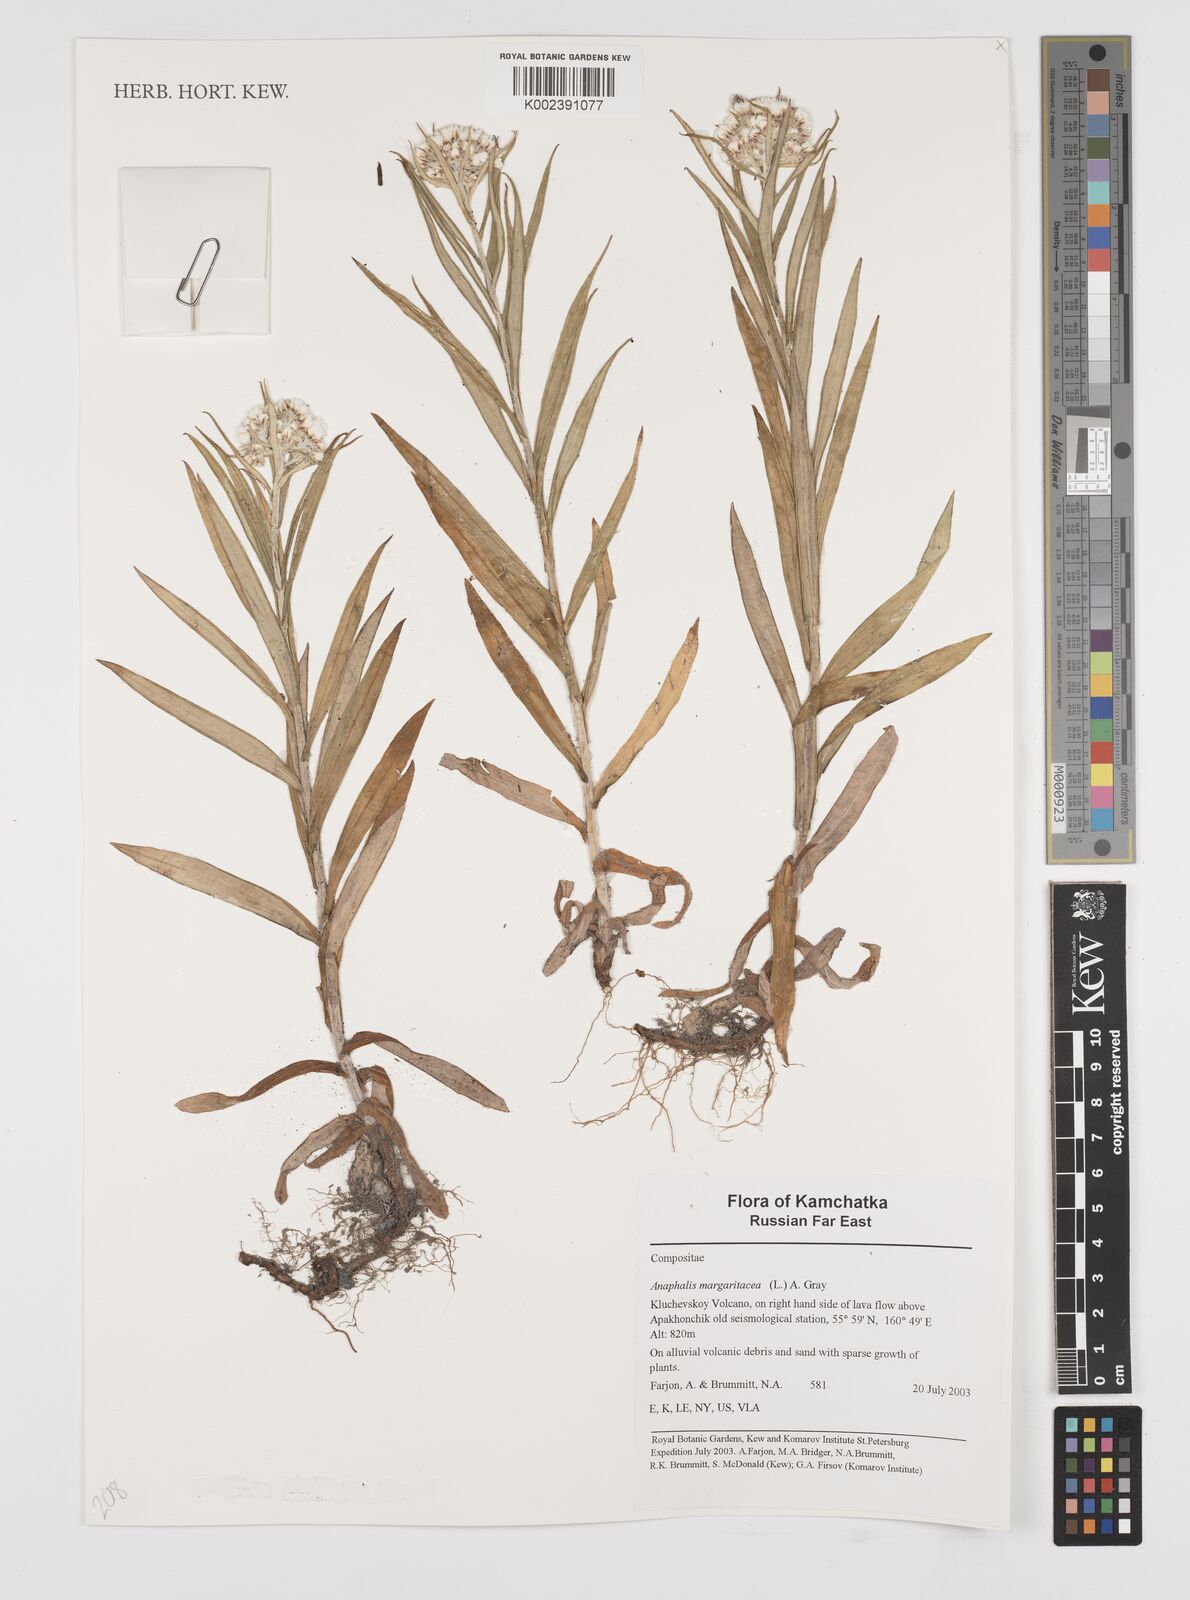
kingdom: Plantae
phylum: Tracheophyta
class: Magnoliopsida
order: Asterales
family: Asteraceae
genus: Anaphalis
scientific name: Anaphalis margaritacea
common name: Pearly everlasting
